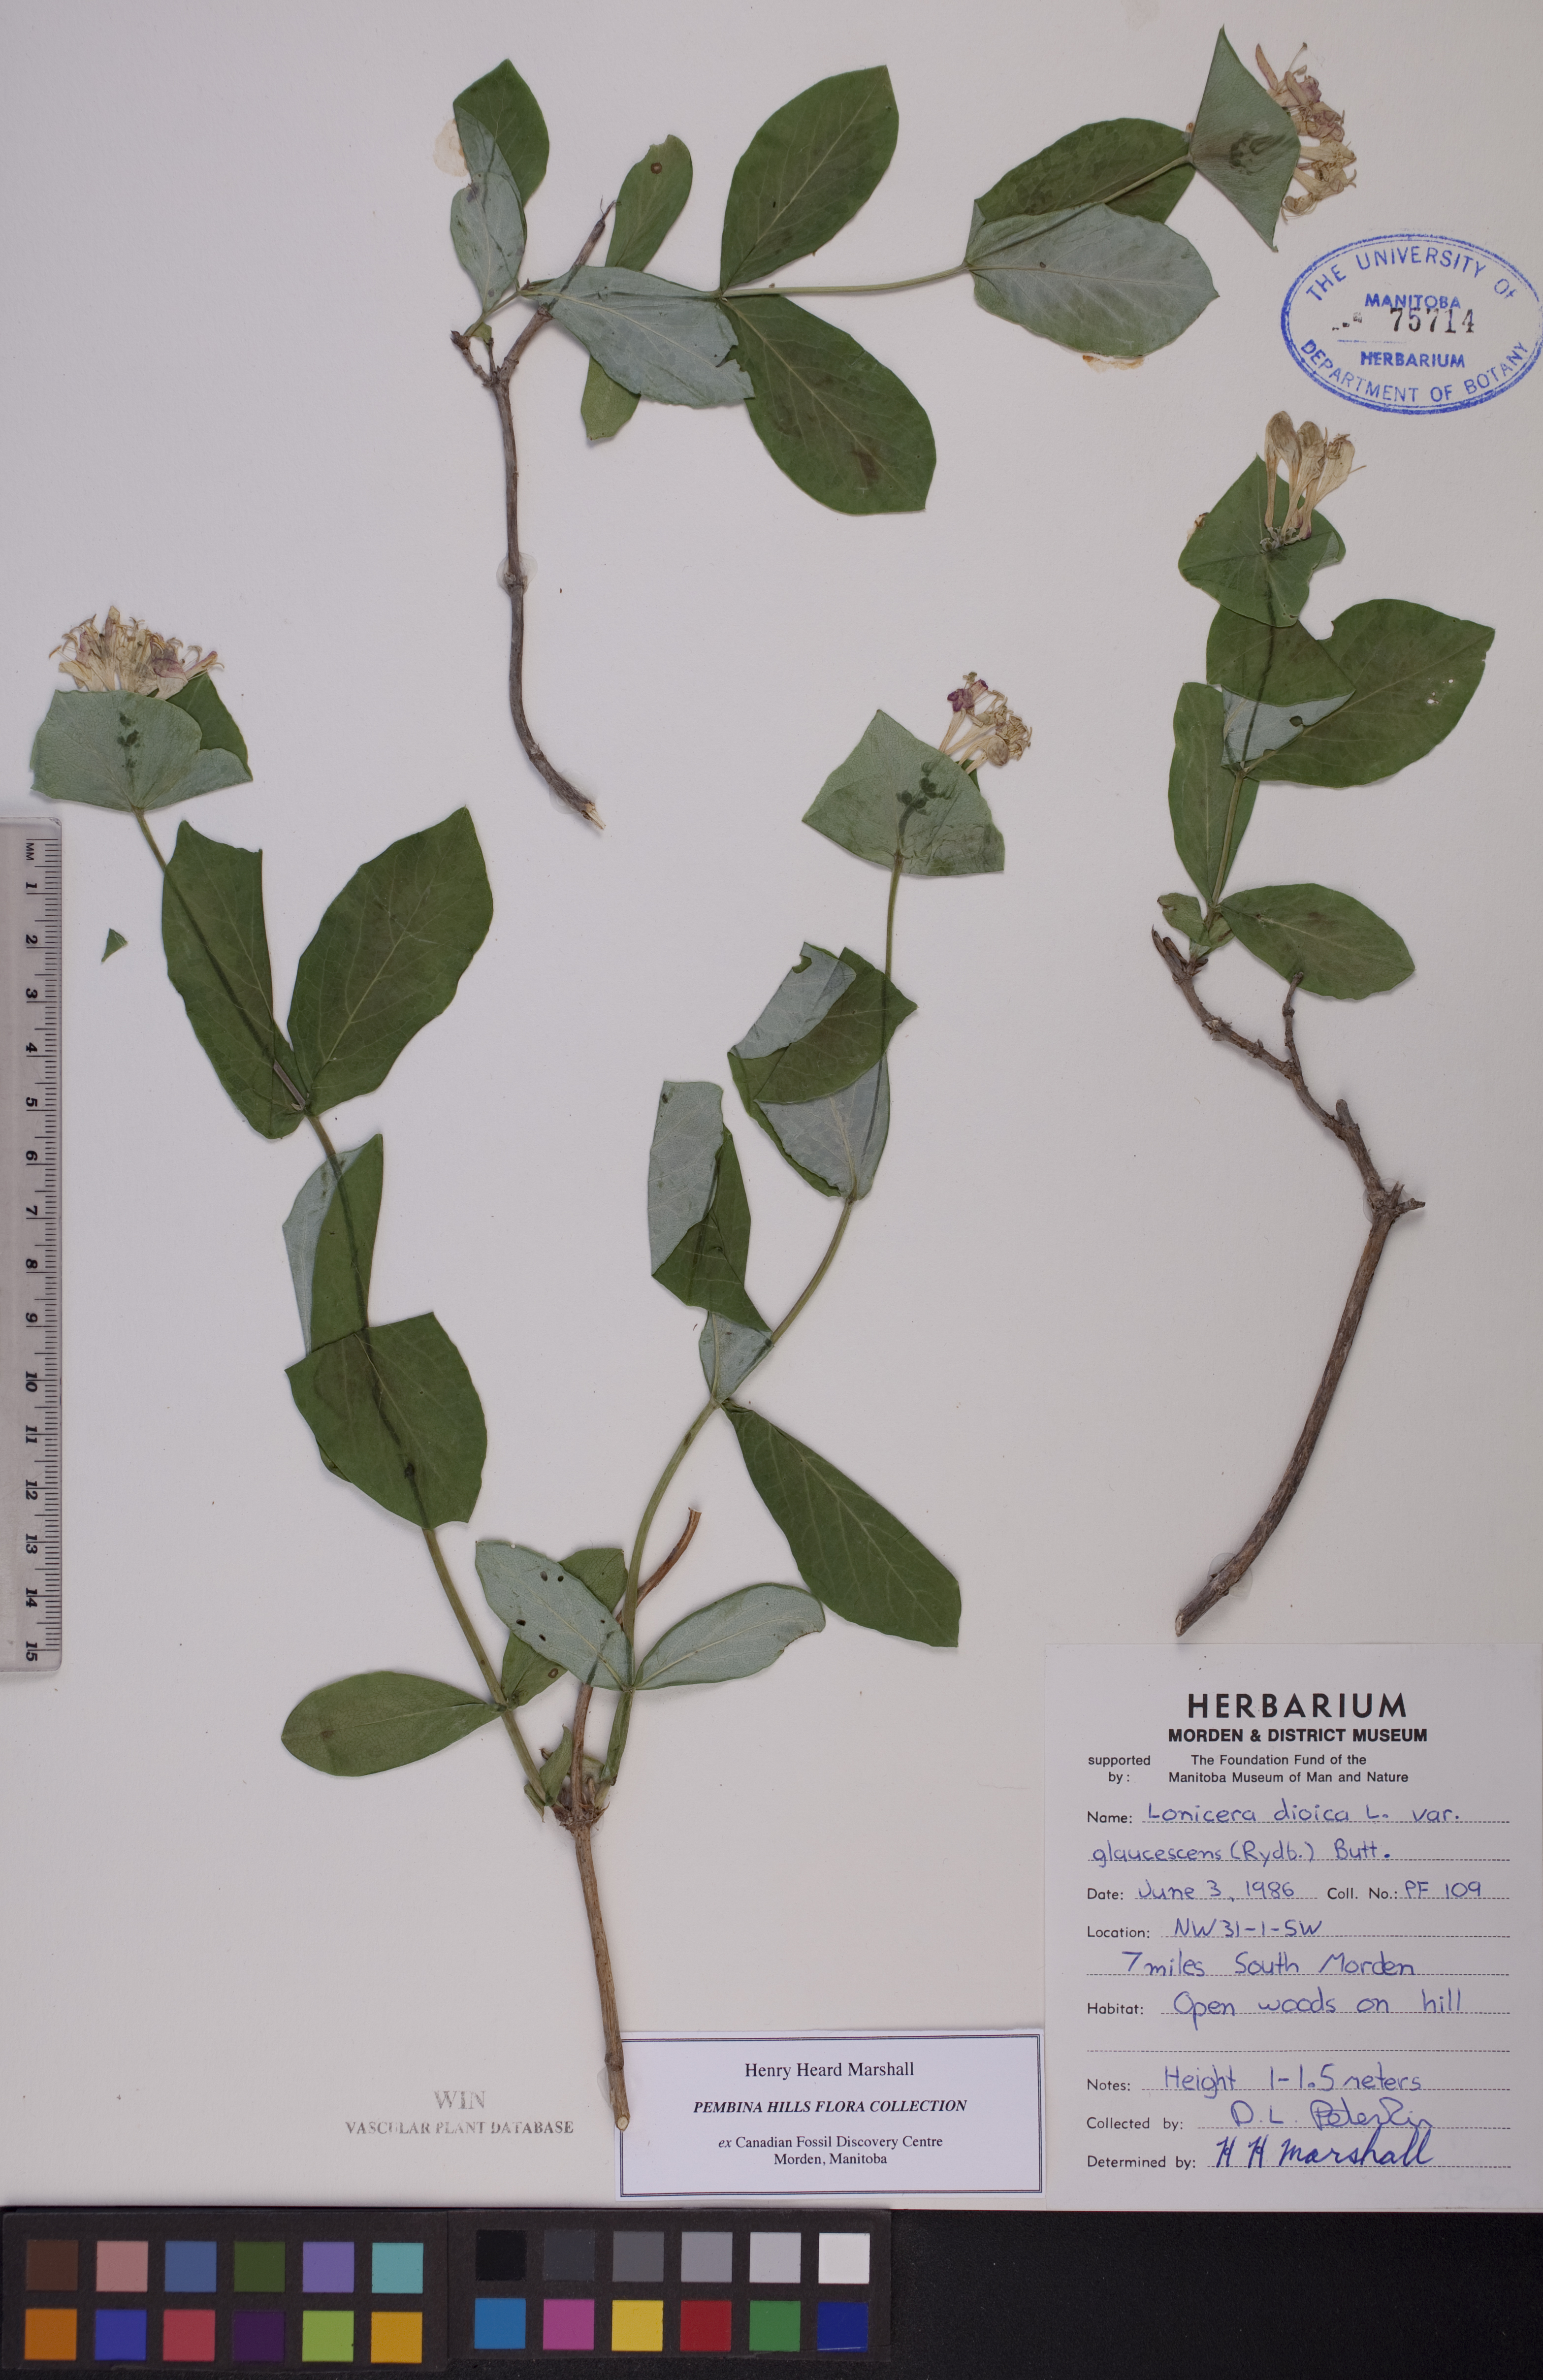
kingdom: Plantae
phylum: Tracheophyta
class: Magnoliopsida
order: Dipsacales
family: Caprifoliaceae
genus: Lonicera
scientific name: Lonicera dioica
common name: Limber honeysuckle
